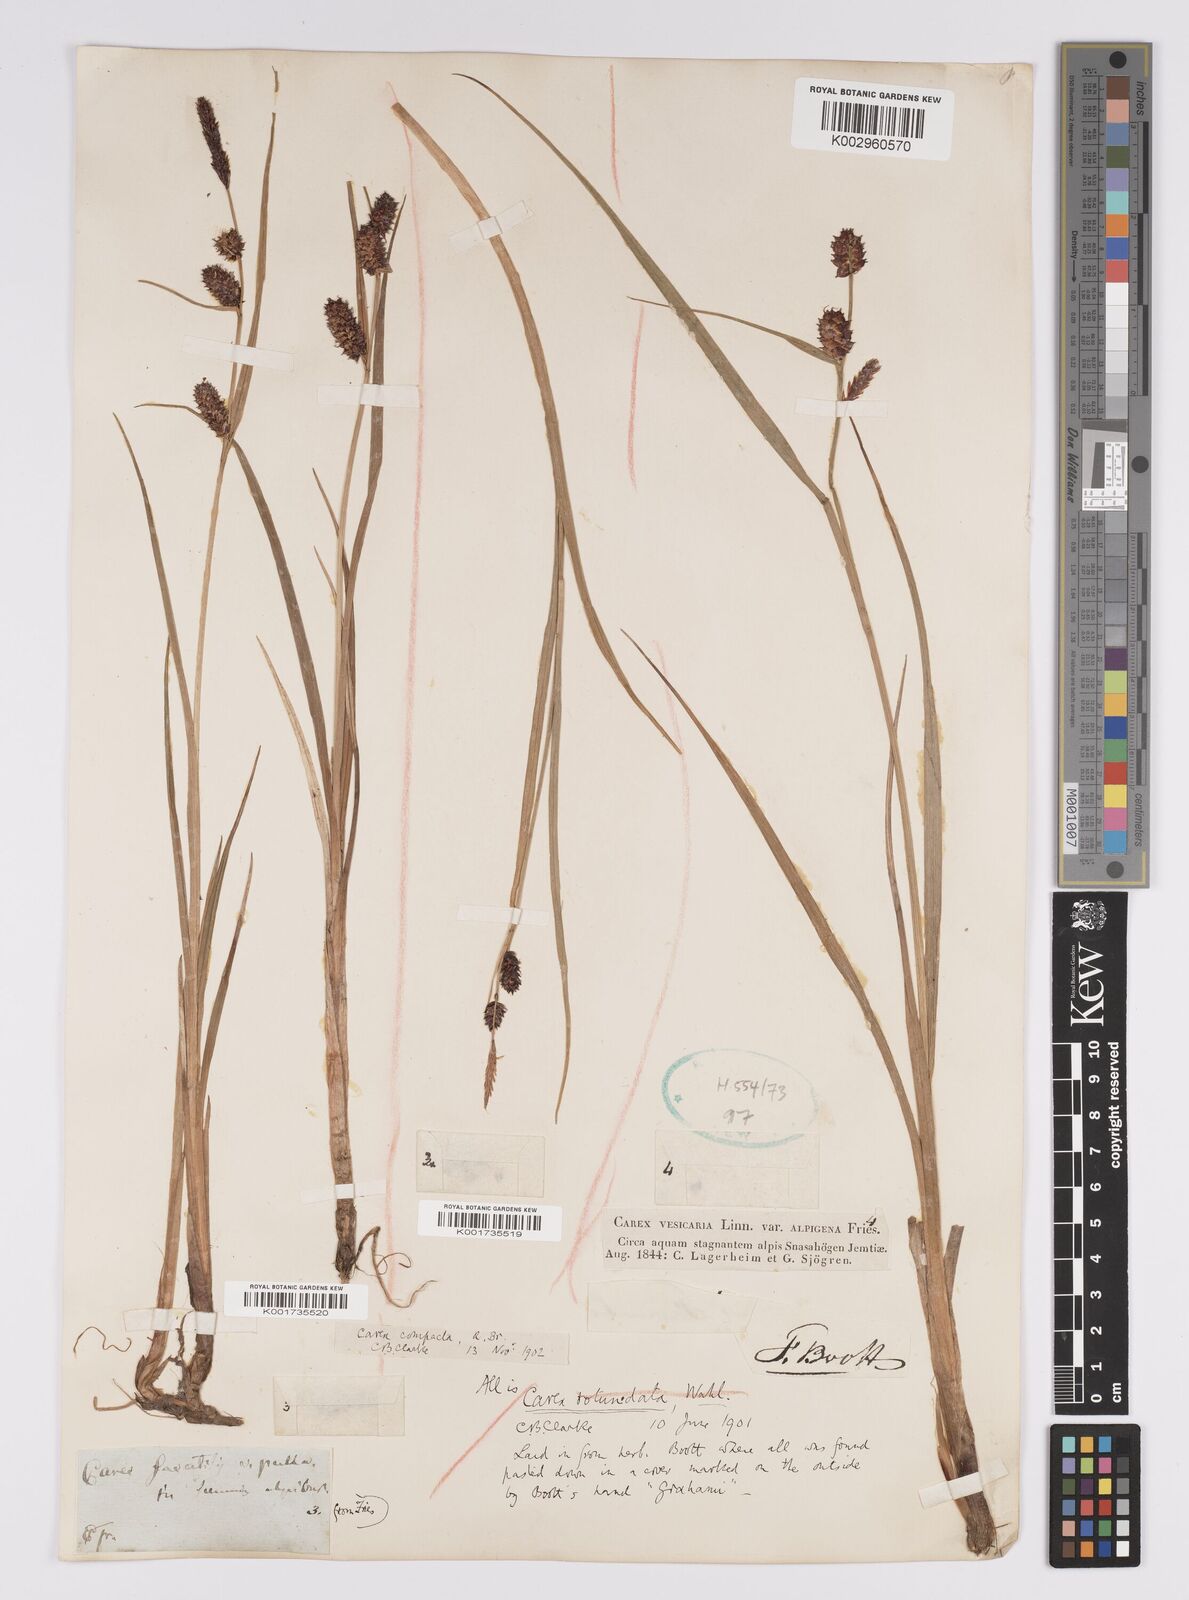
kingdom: Plantae
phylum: Tracheophyta
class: Liliopsida
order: Poales
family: Cyperaceae
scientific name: Cyperaceae
